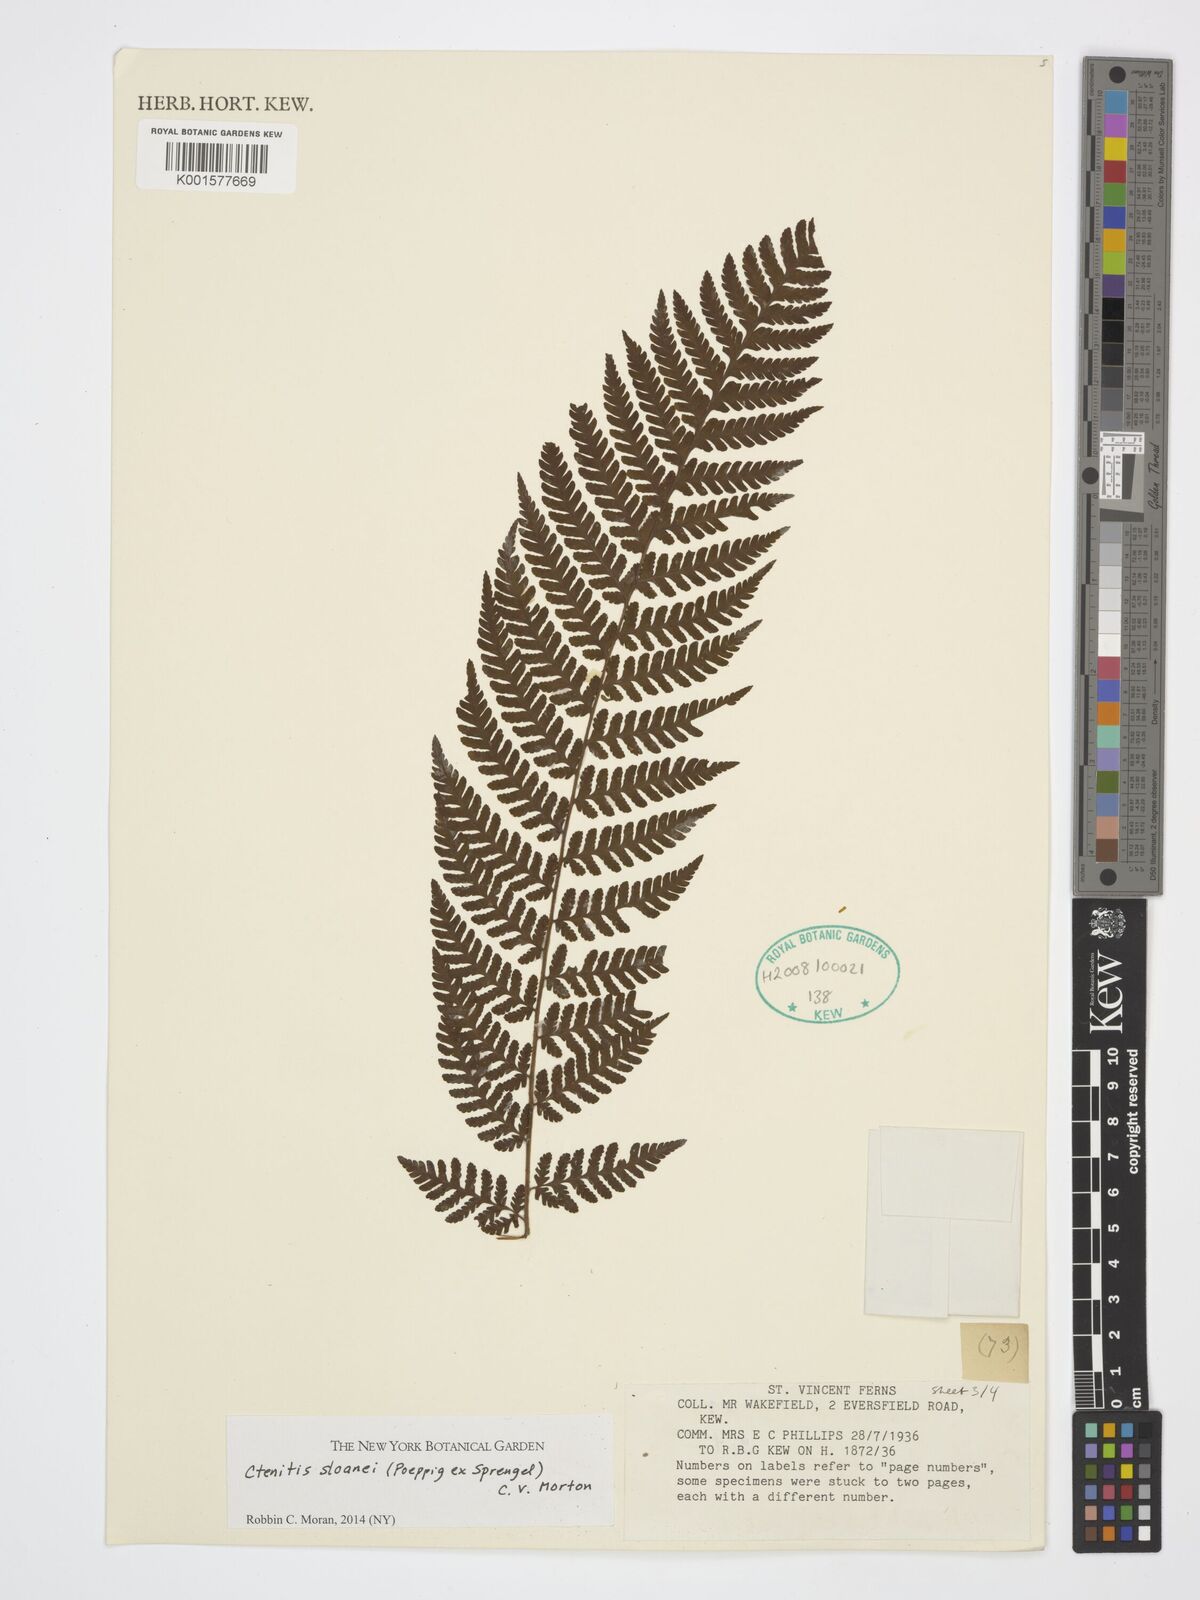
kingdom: Plantae
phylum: Tracheophyta
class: Polypodiopsida
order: Polypodiales
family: Dryopteridaceae
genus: Ctenitis
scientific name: Ctenitis sloanei
